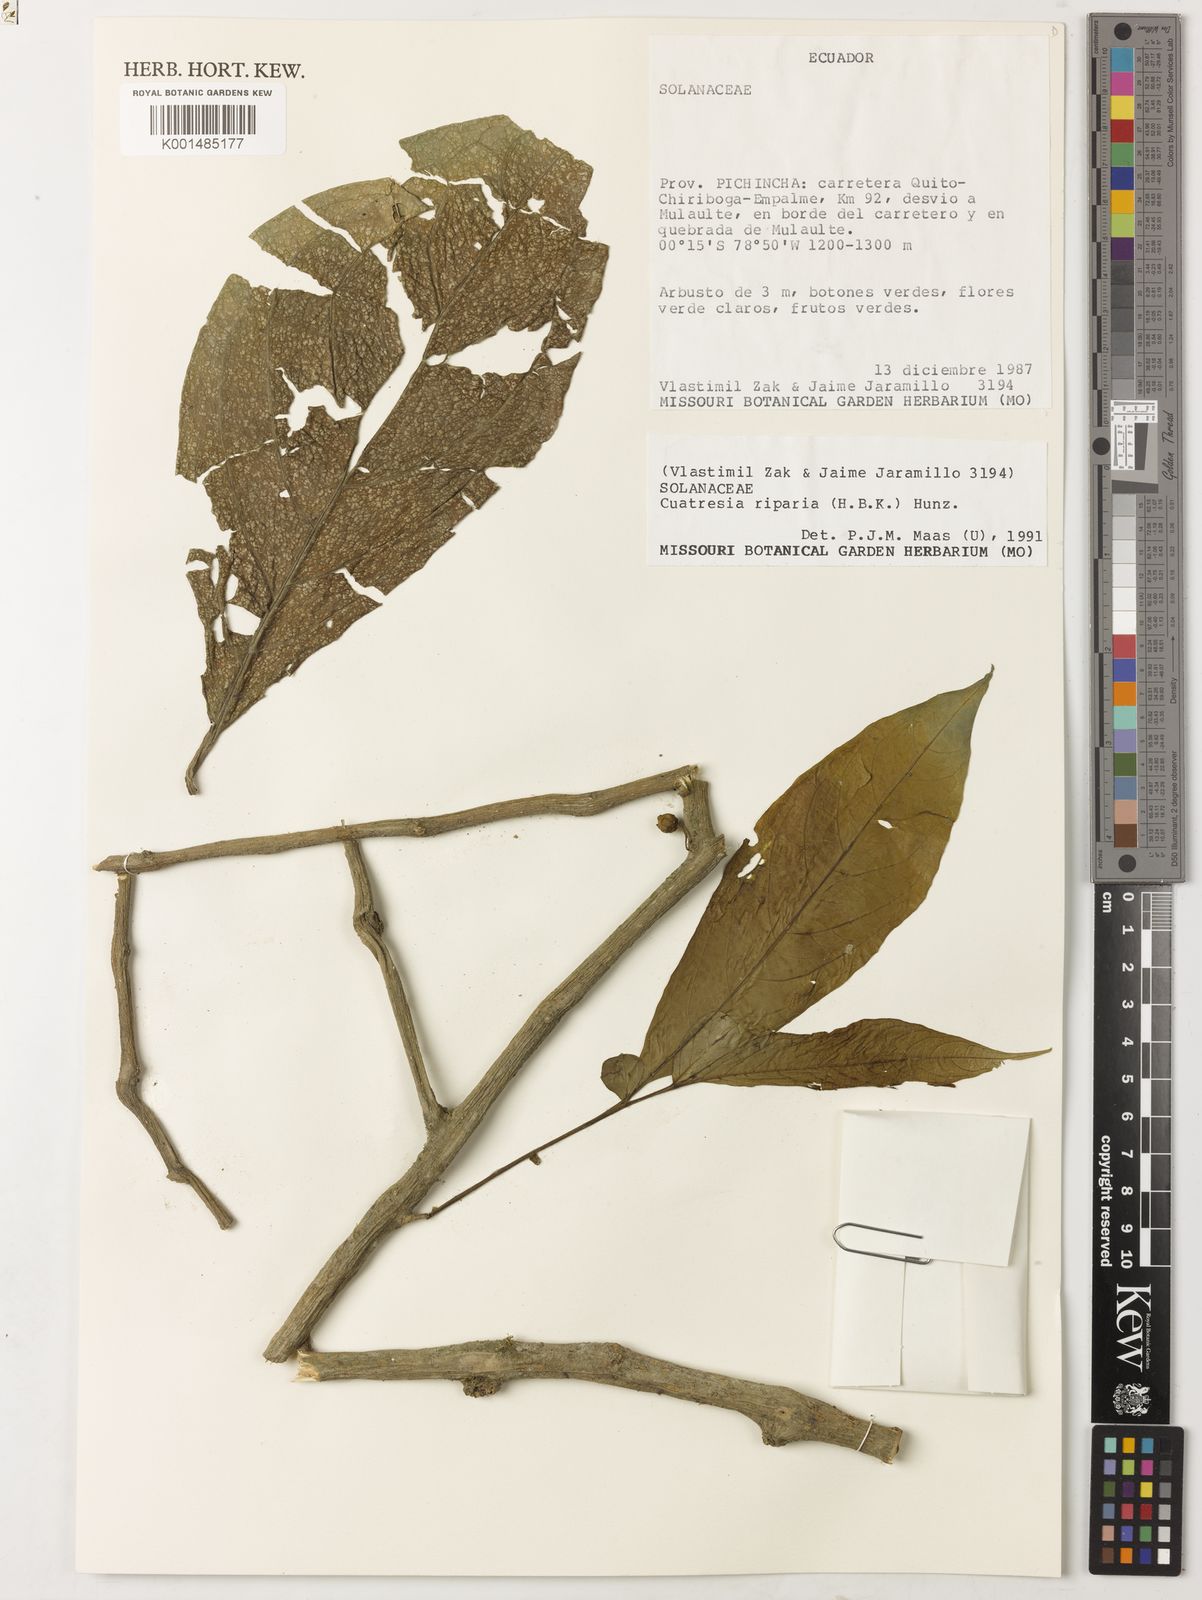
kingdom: Plantae
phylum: Tracheophyta
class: Magnoliopsida
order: Solanales
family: Solanaceae
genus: Cuatresia
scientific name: Cuatresia riparia
